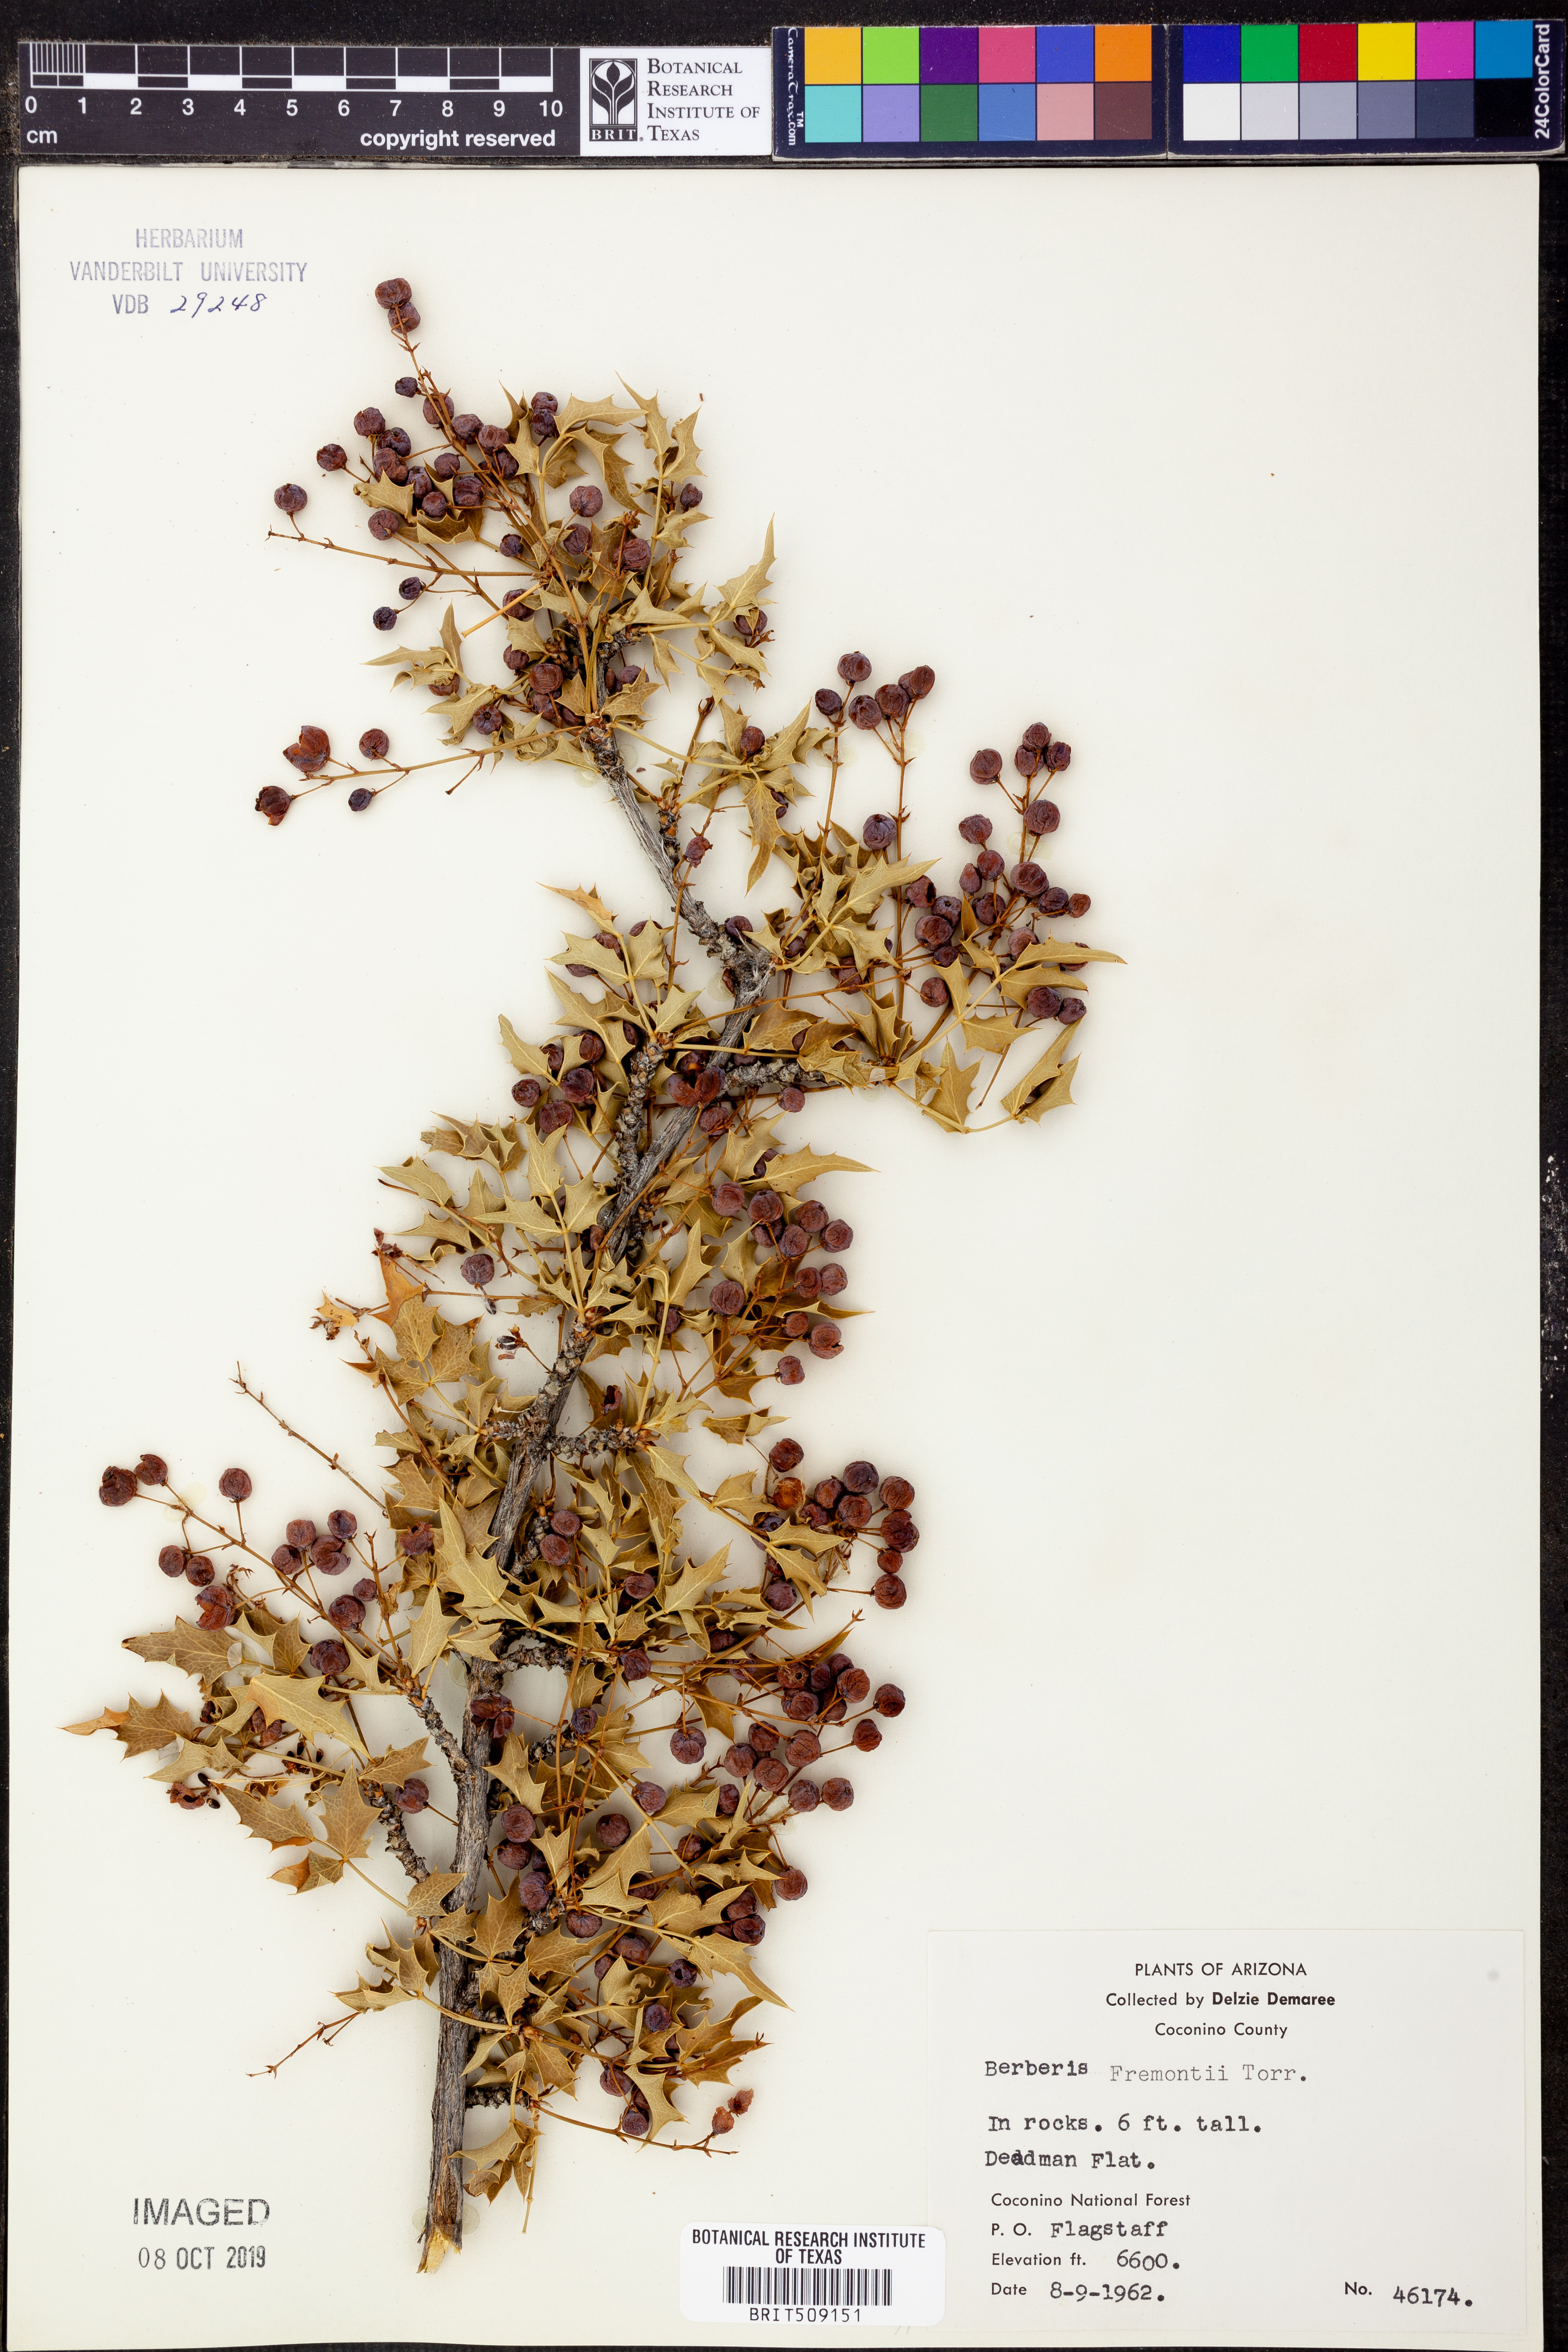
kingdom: Plantae
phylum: Tracheophyta
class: Magnoliopsida
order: Ranunculales
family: Berberidaceae
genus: Alloberberis
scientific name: Alloberberis fremontii
